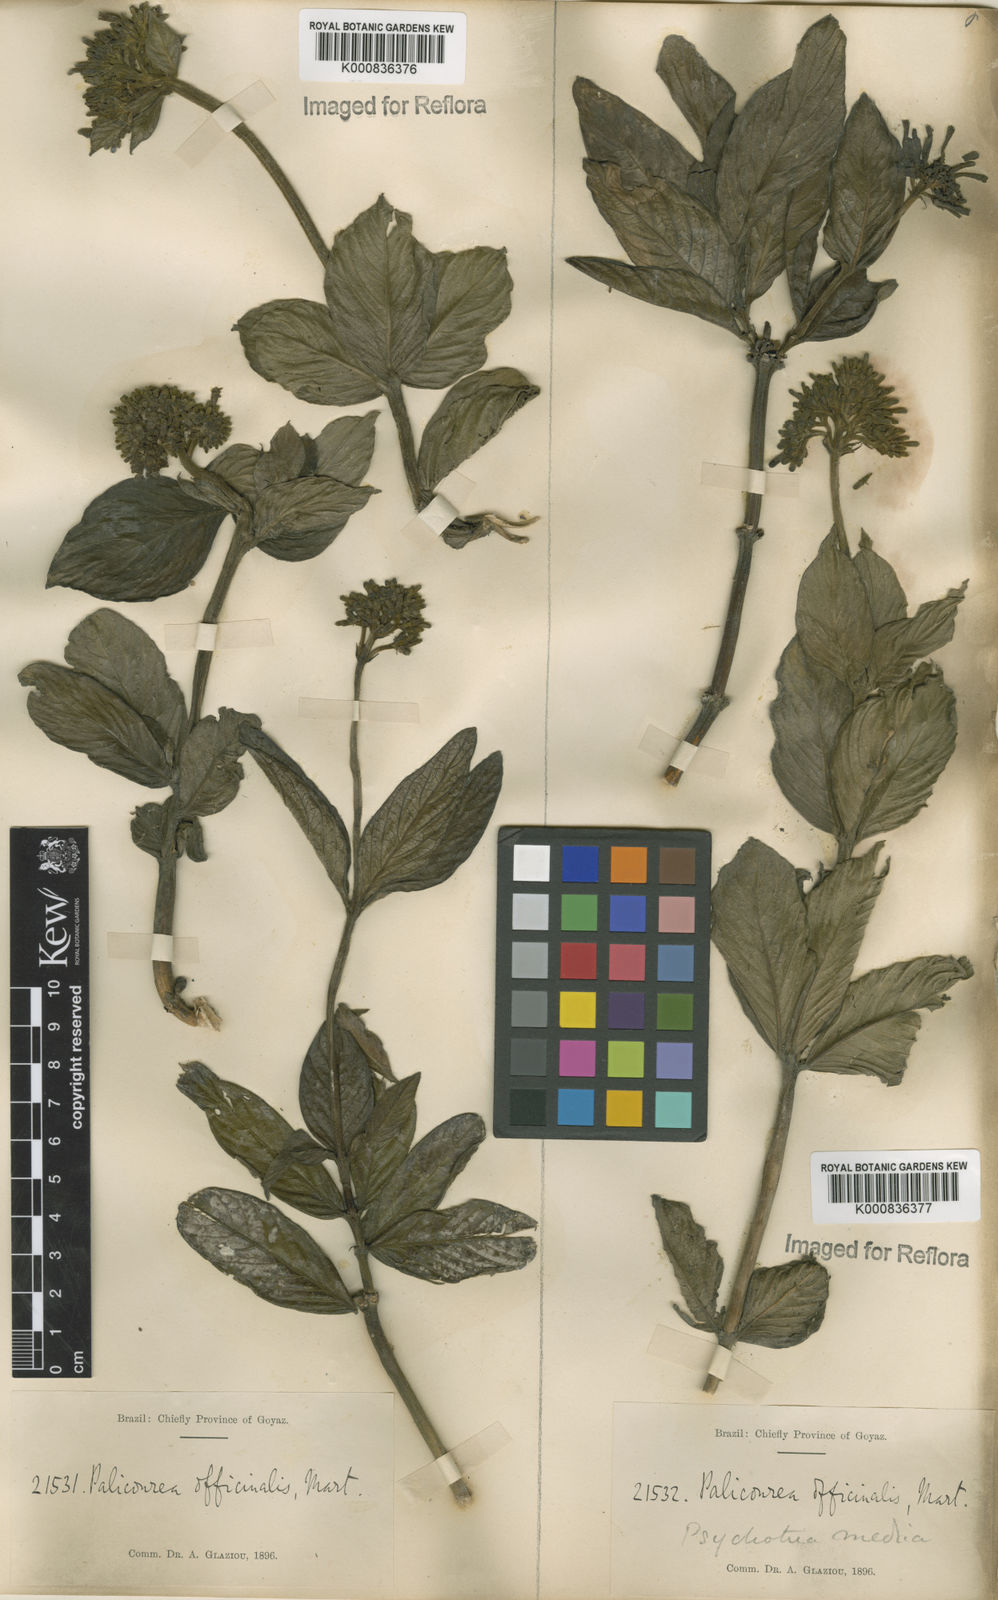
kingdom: Plantae
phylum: Tracheophyta
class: Magnoliopsida
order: Gentianales
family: Rubiaceae
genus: Palicourea
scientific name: Palicourea officinalis
